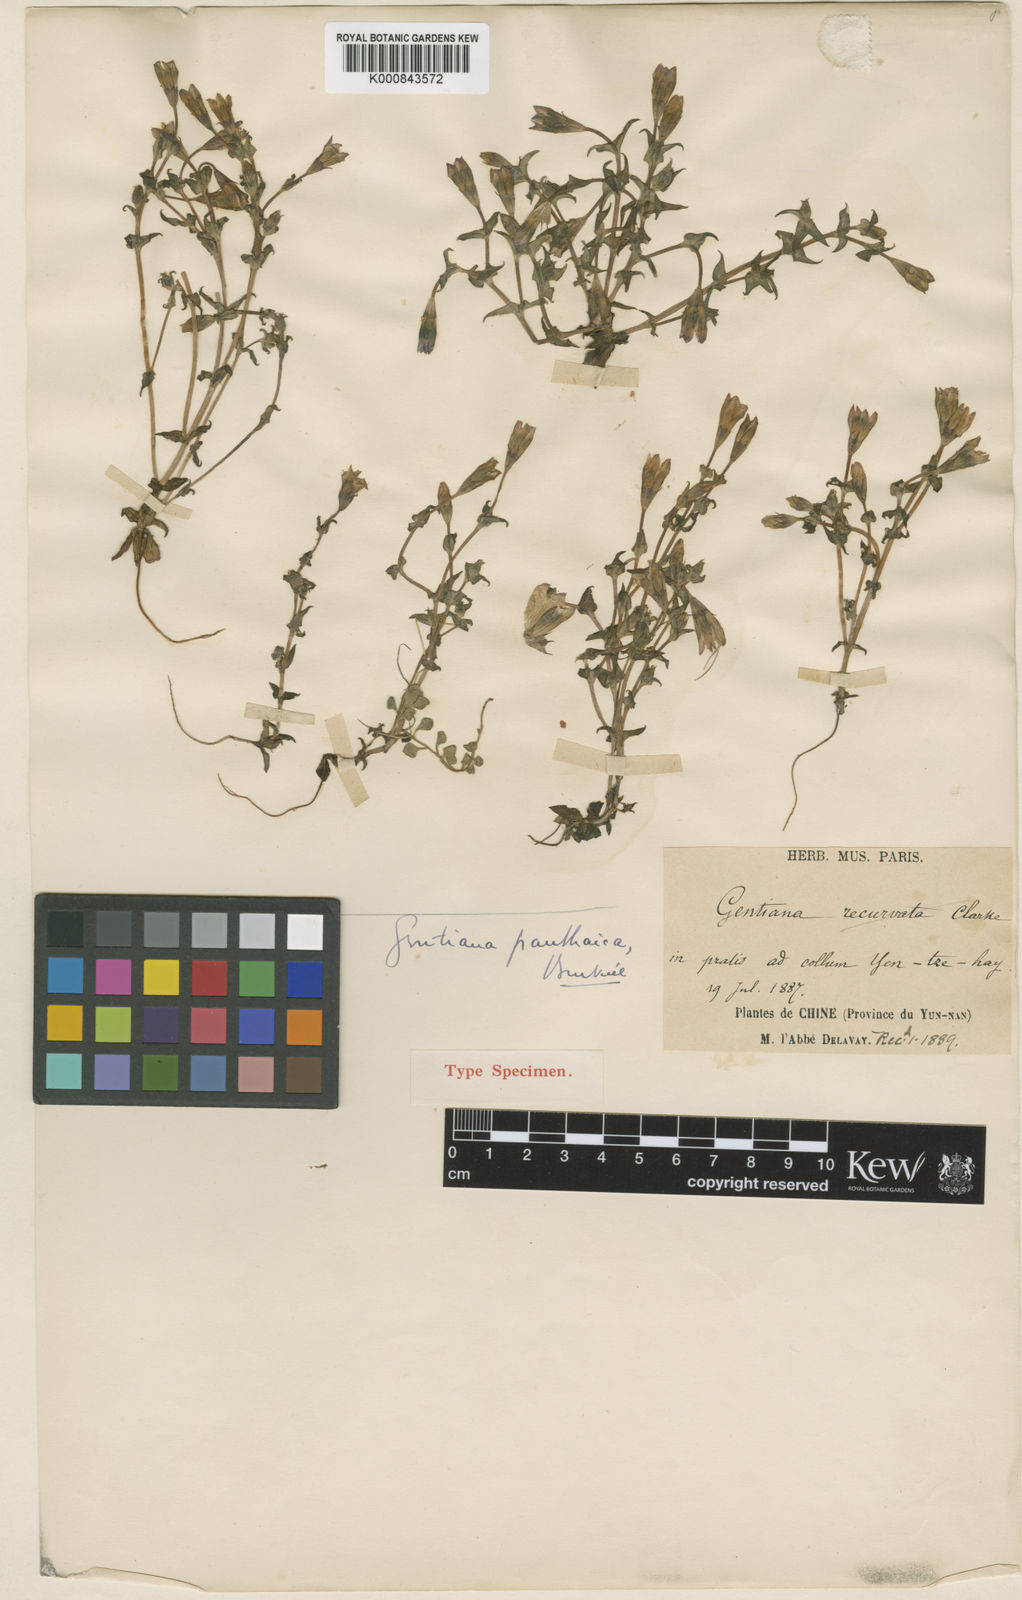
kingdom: Plantae
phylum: Tracheophyta
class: Magnoliopsida
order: Gentianales
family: Gentianaceae
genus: Gentiana
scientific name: Gentiana panthaica
